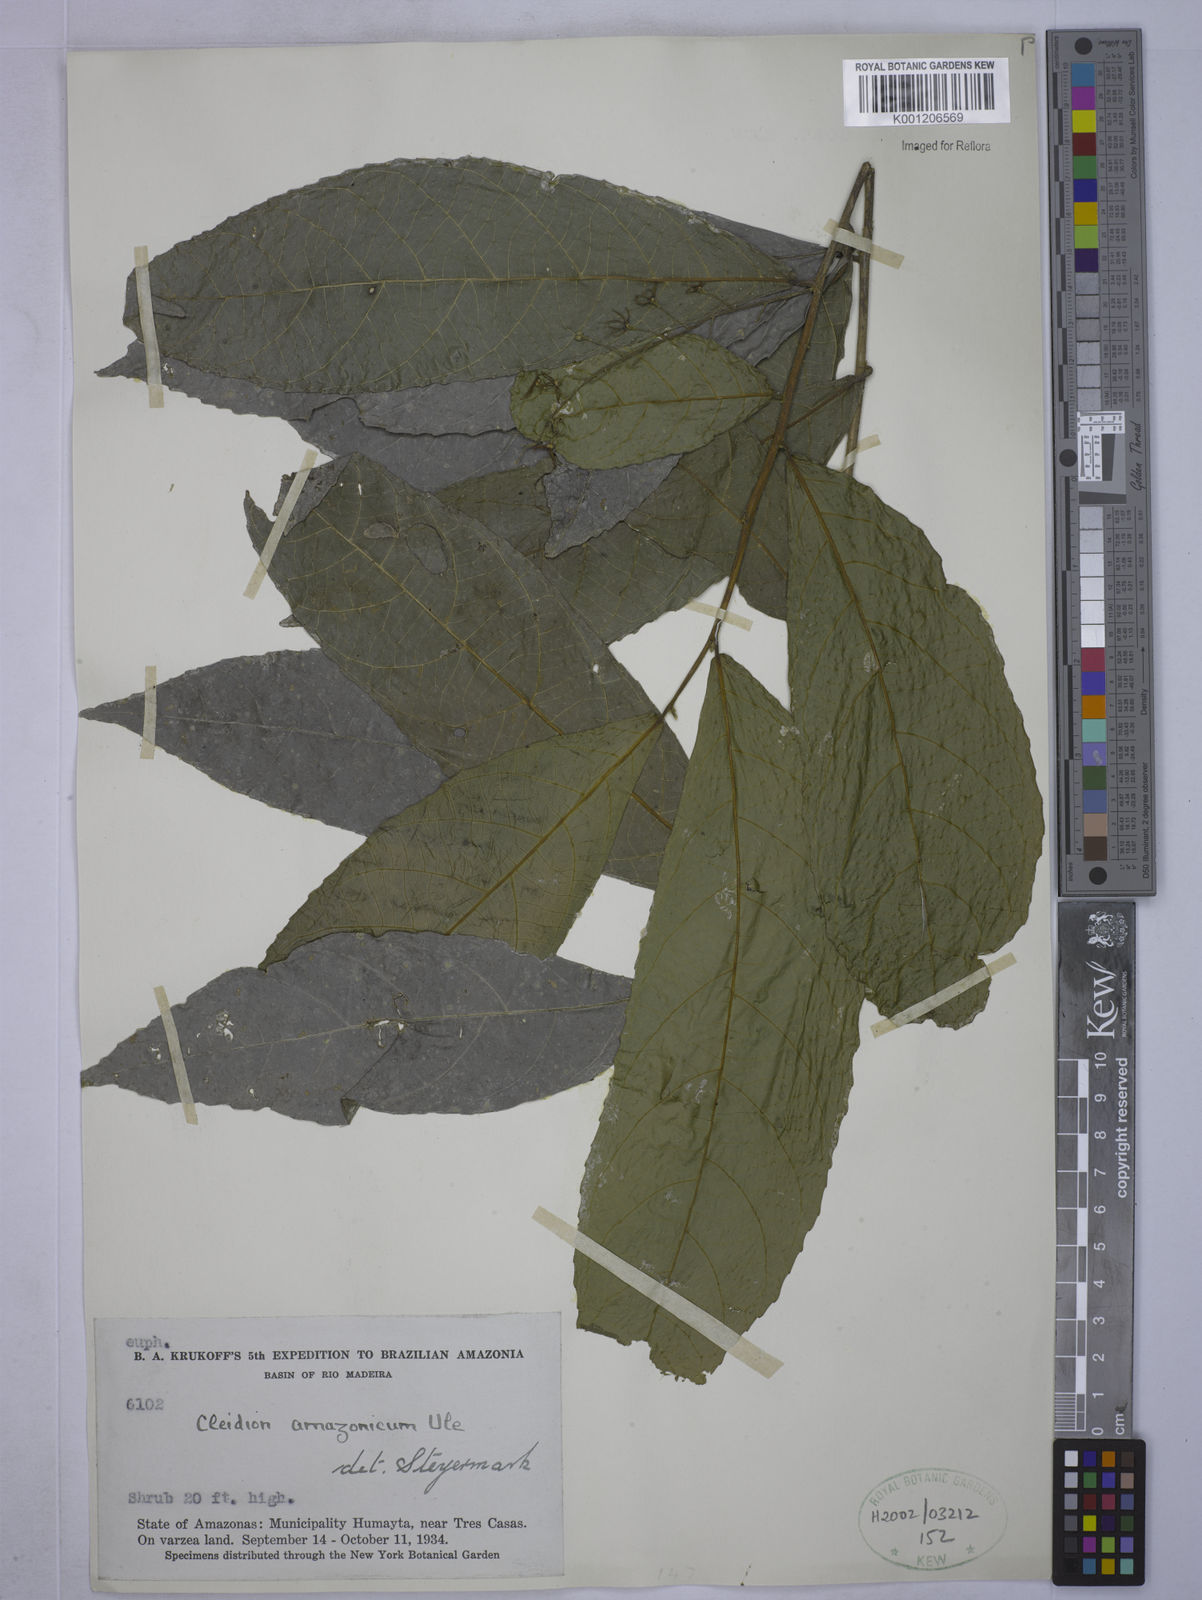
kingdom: Plantae
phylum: Tracheophyta
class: Magnoliopsida
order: Malpighiales
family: Euphorbiaceae
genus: Cleidion
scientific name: Cleidion amazonicum
